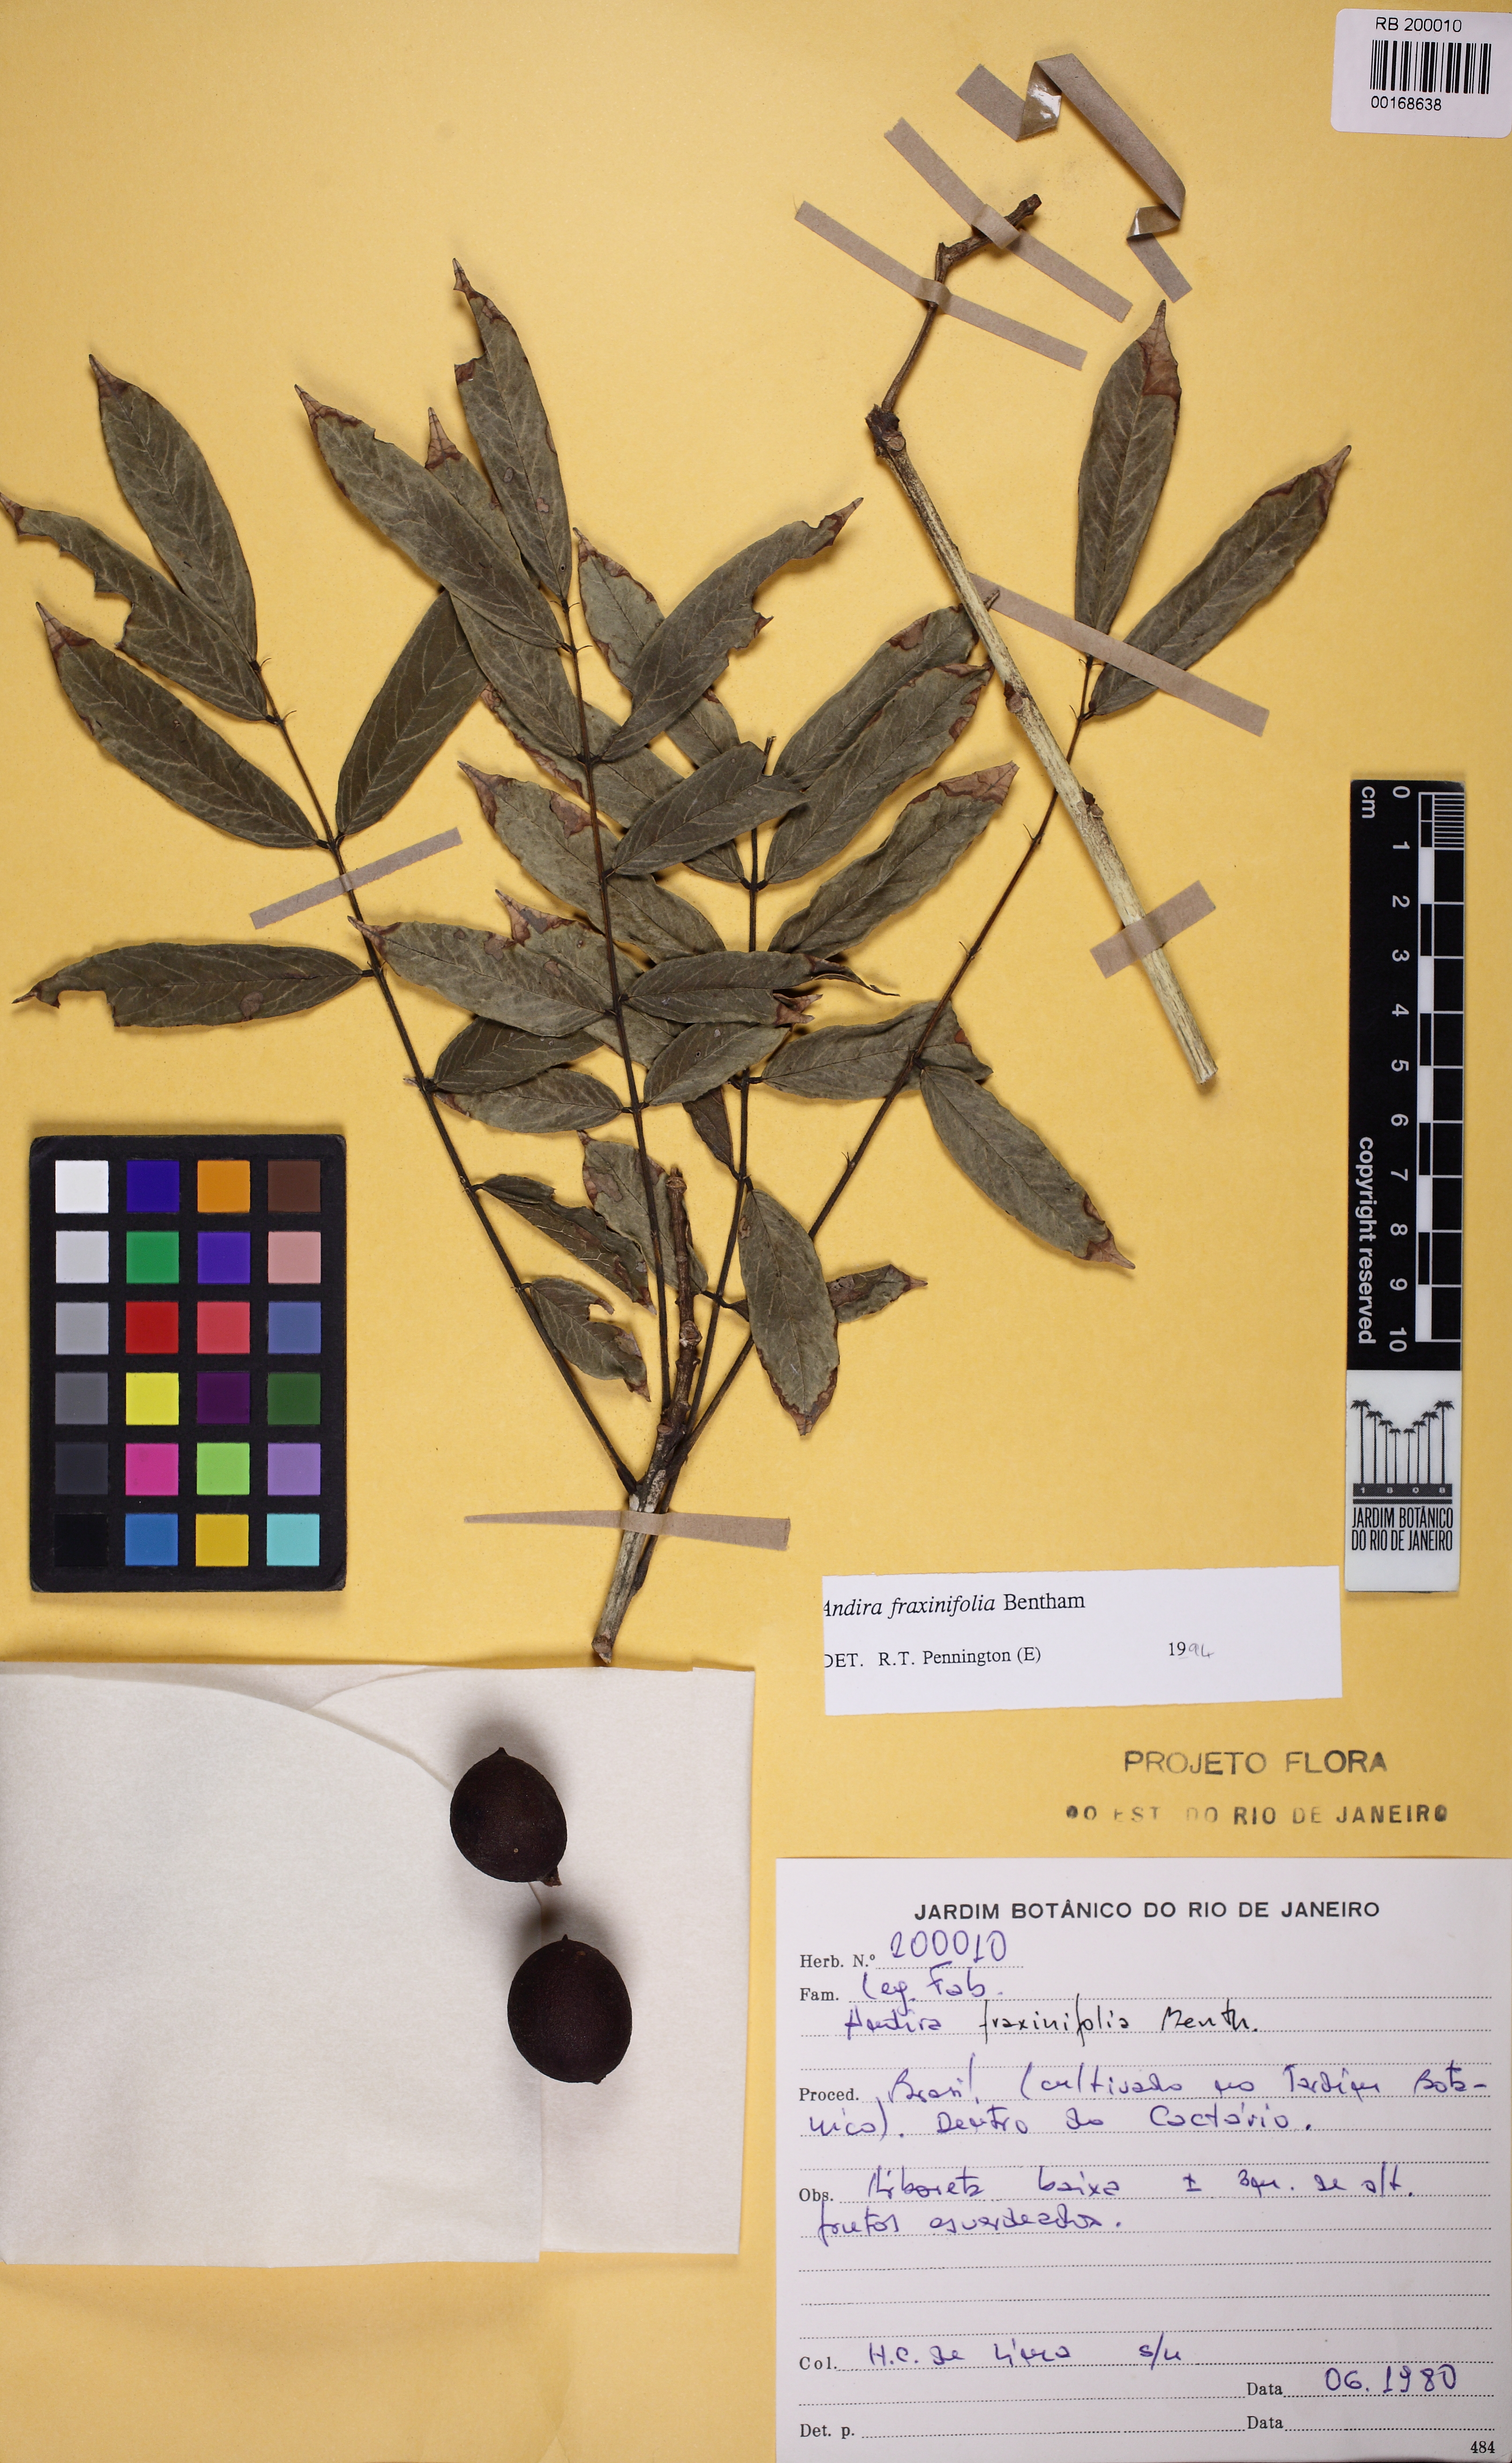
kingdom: Plantae
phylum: Tracheophyta
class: Magnoliopsida
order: Fabales
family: Fabaceae
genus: Andira
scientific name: Andira fraxinifolia
